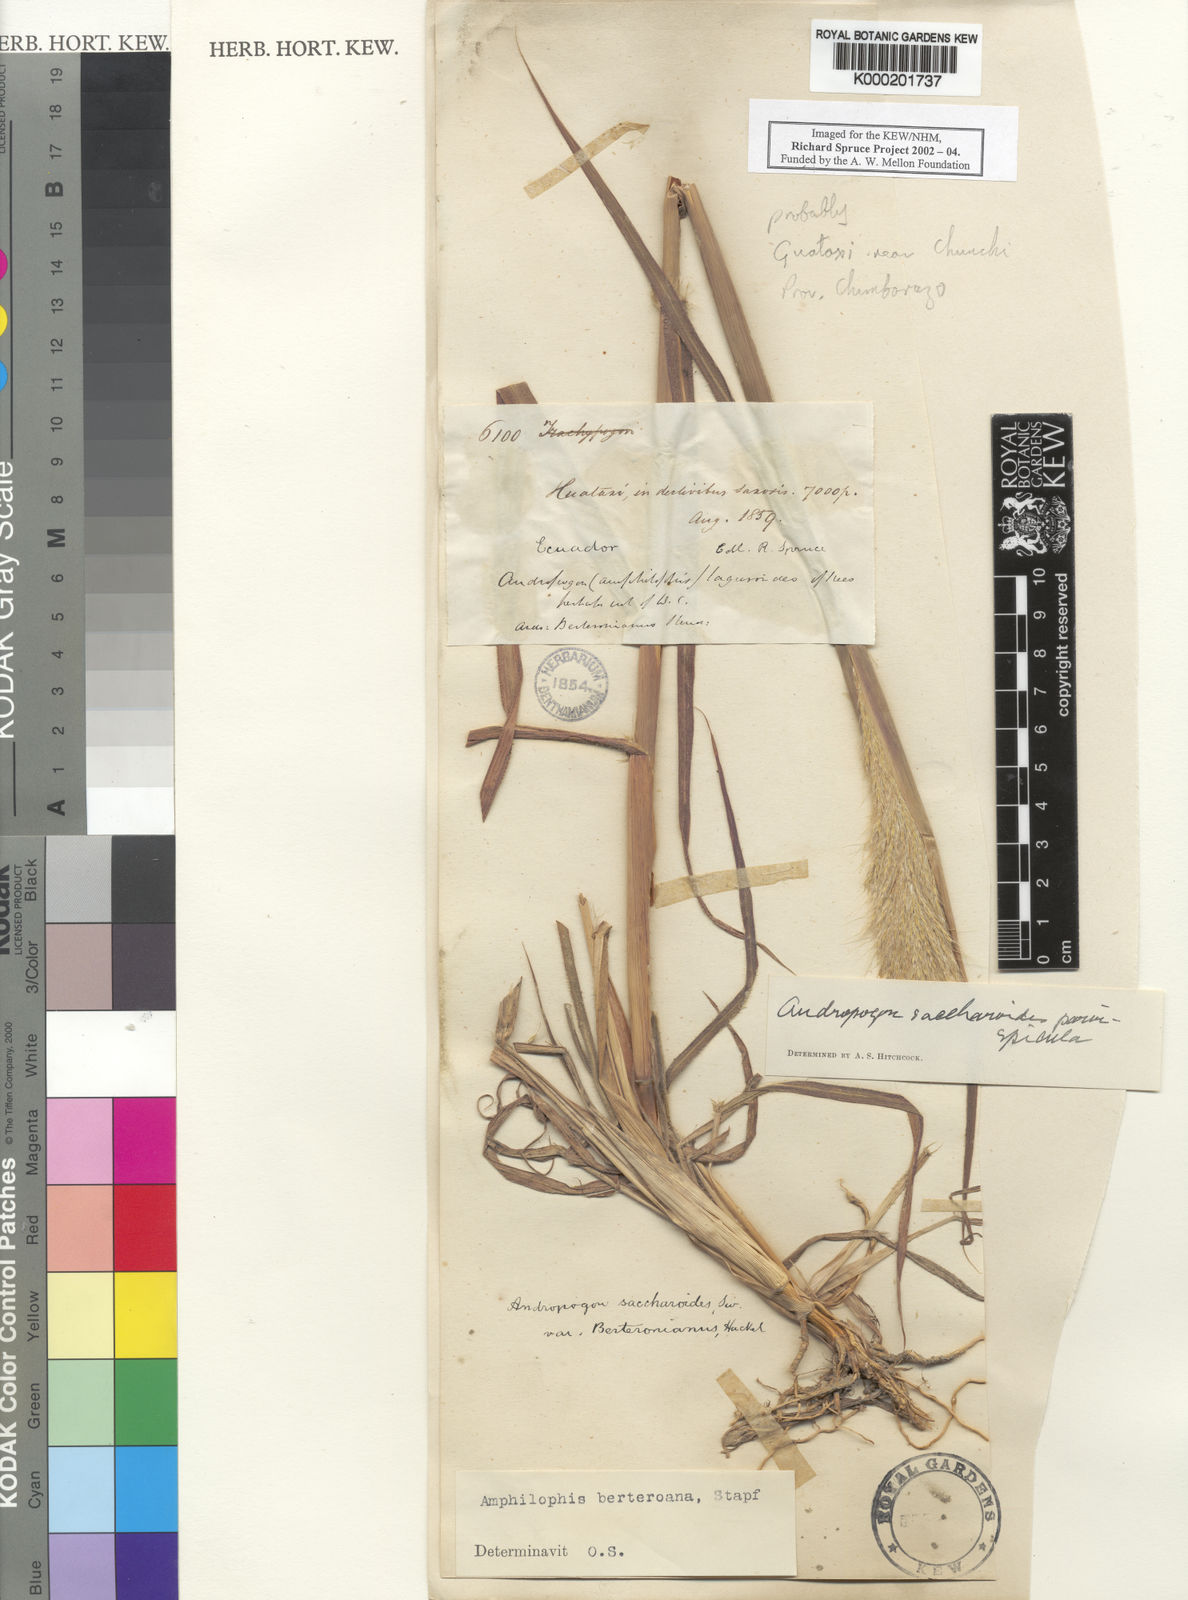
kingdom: Plantae
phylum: Tracheophyta
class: Liliopsida
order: Poales
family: Poaceae
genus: Bothriochloa
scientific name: Bothriochloa saccharoides
